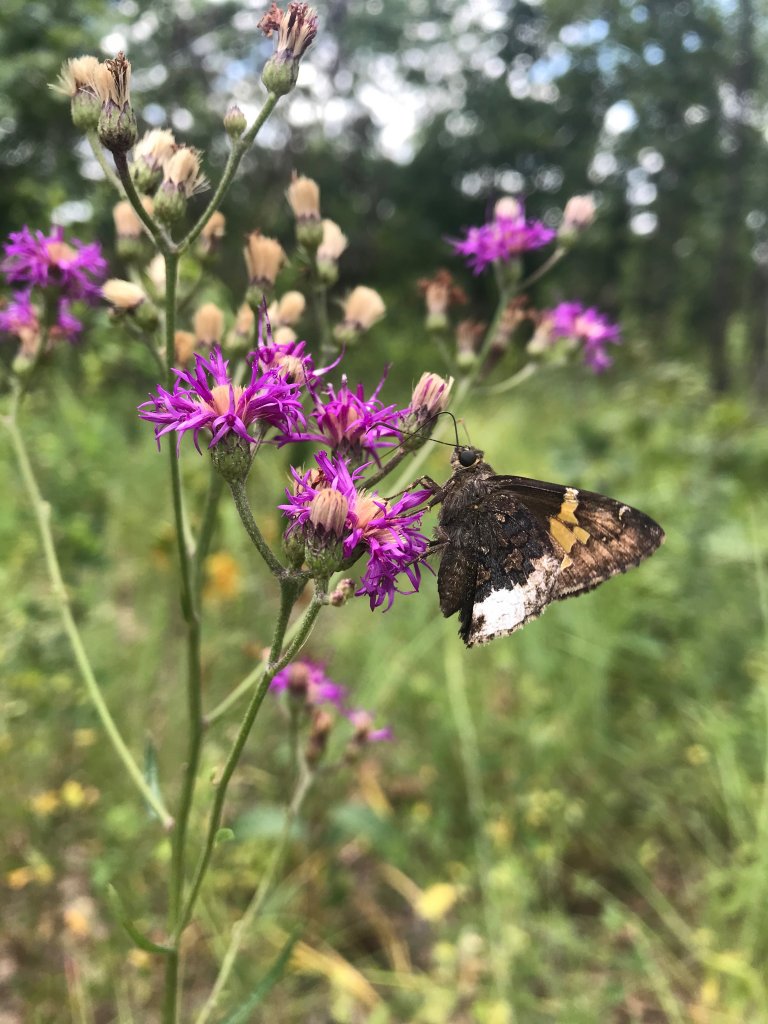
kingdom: Animalia
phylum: Arthropoda
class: Insecta
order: Lepidoptera
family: Hesperiidae
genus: Achalarus
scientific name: Achalarus lyciades
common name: Hoary Edge
